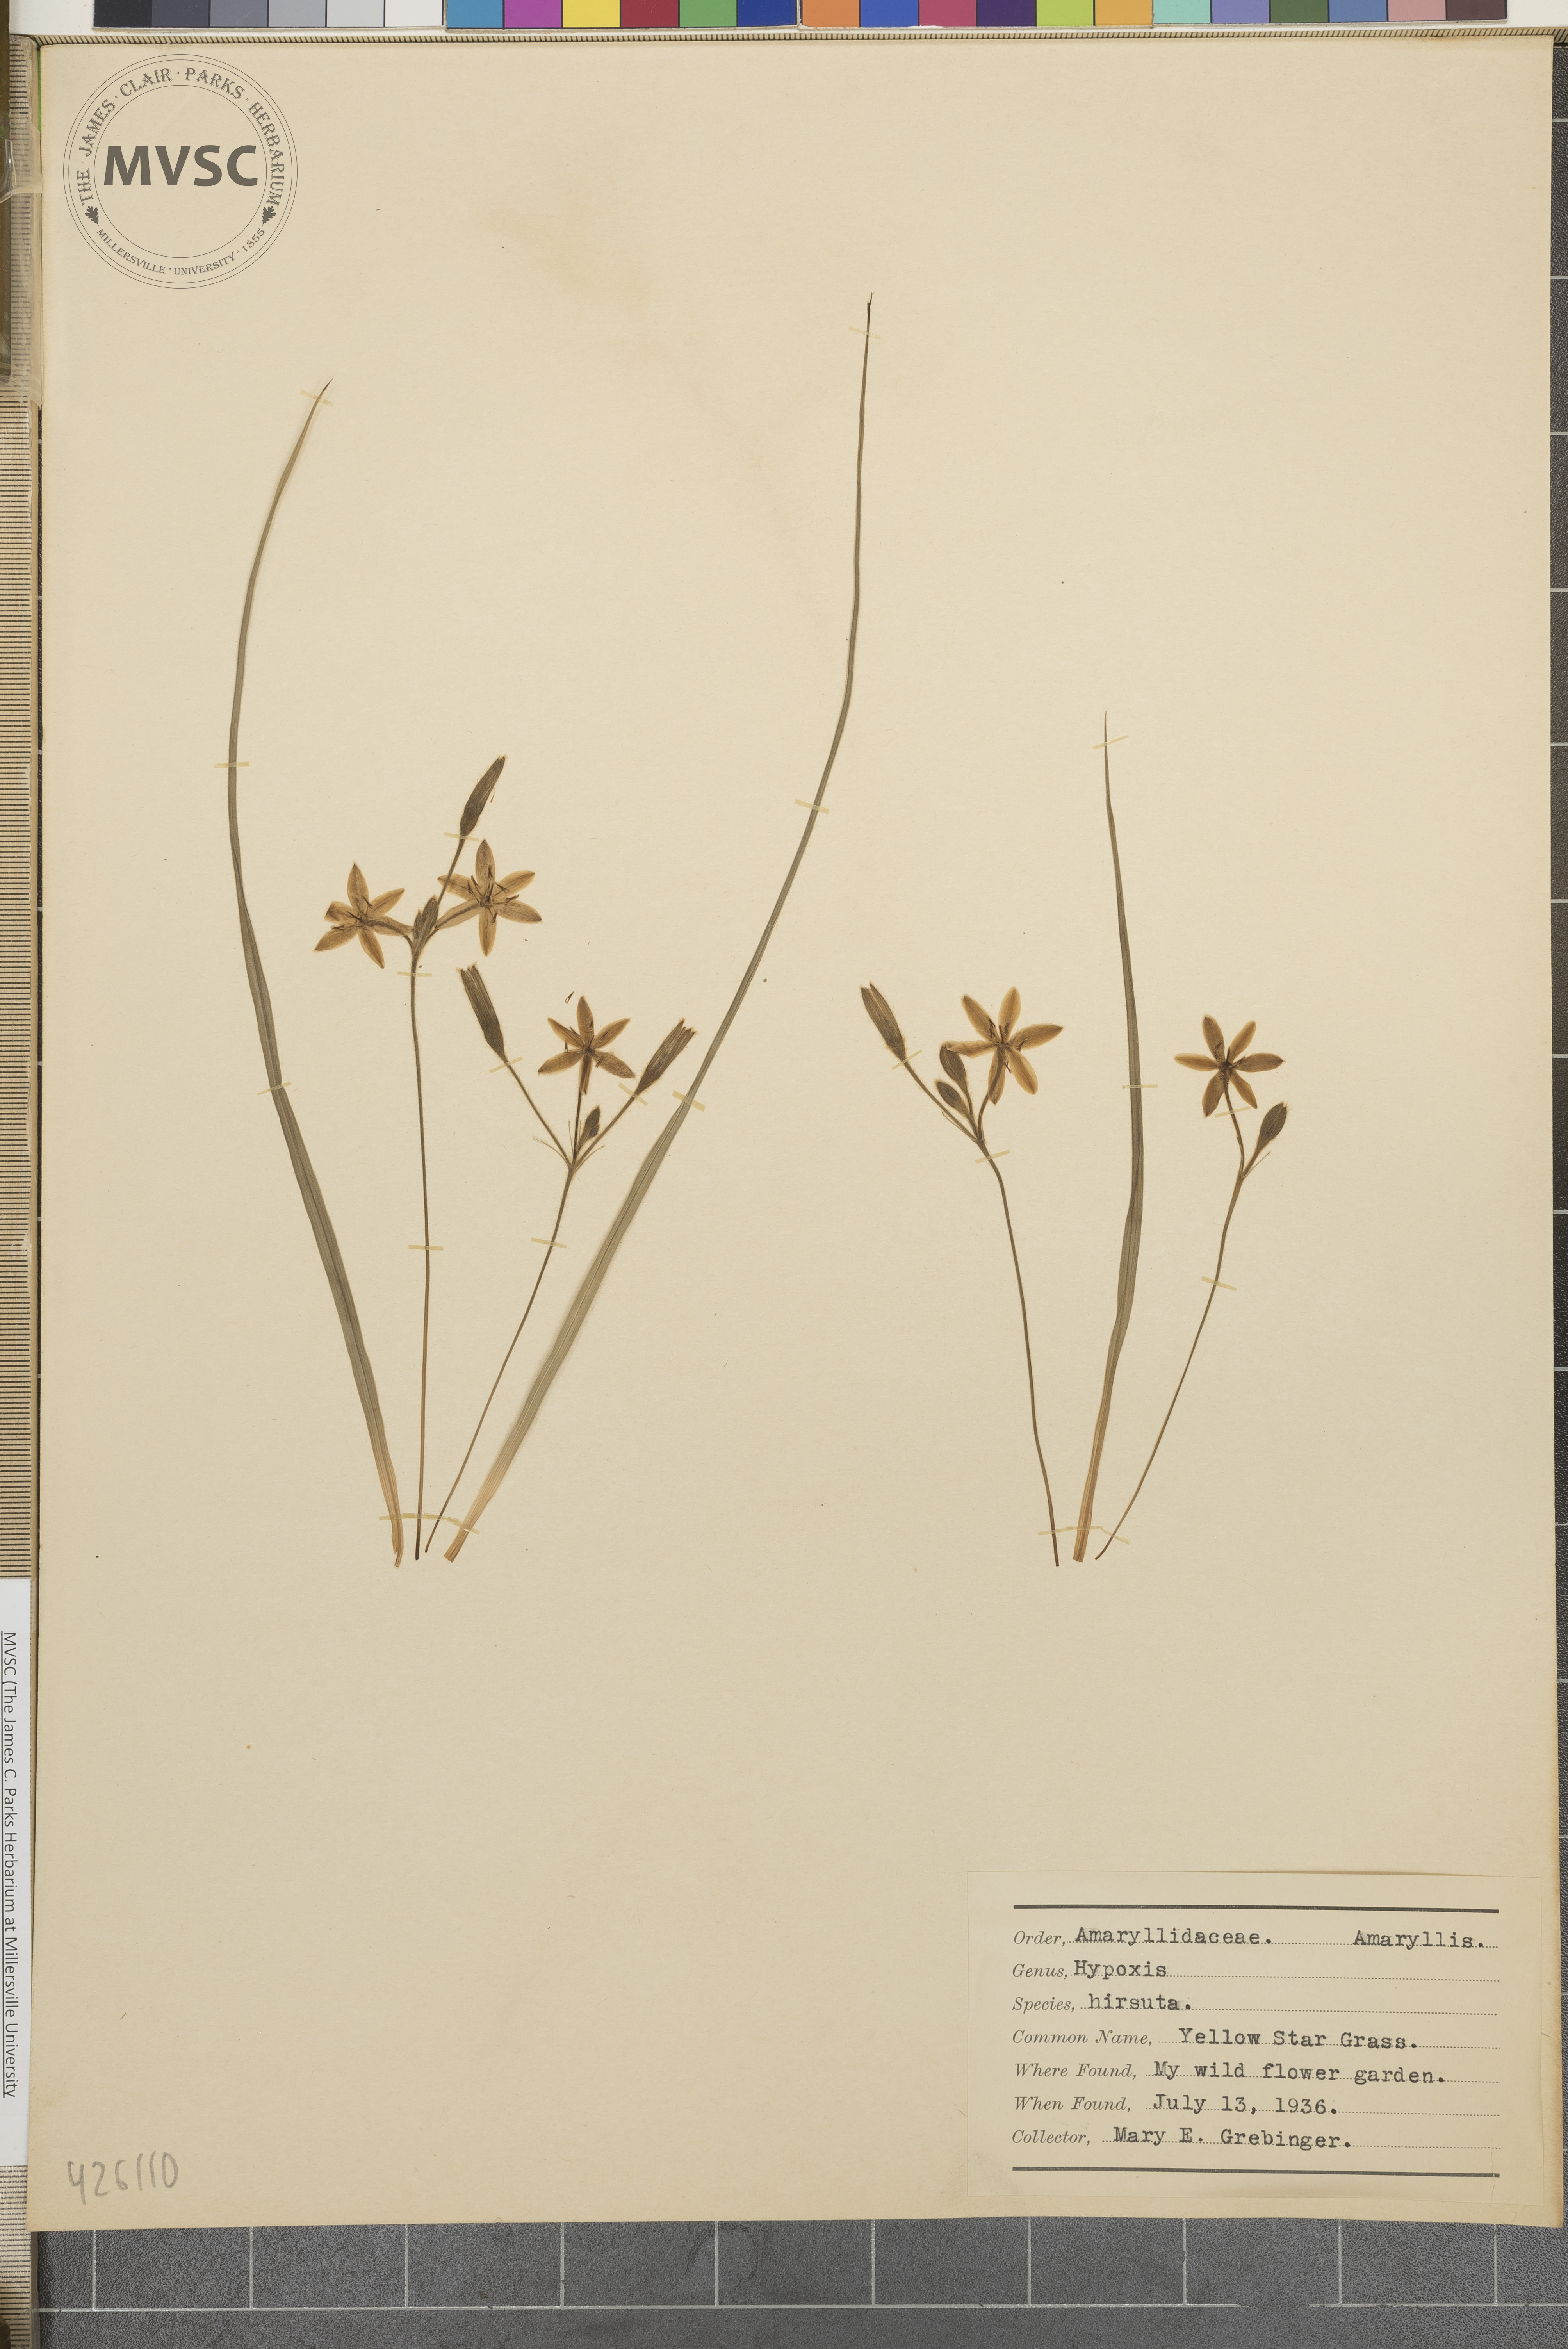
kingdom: Plantae
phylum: Tracheophyta
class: Liliopsida
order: Asparagales
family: Hypoxidaceae
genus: Hypoxis
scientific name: Hypoxis hirsuta
